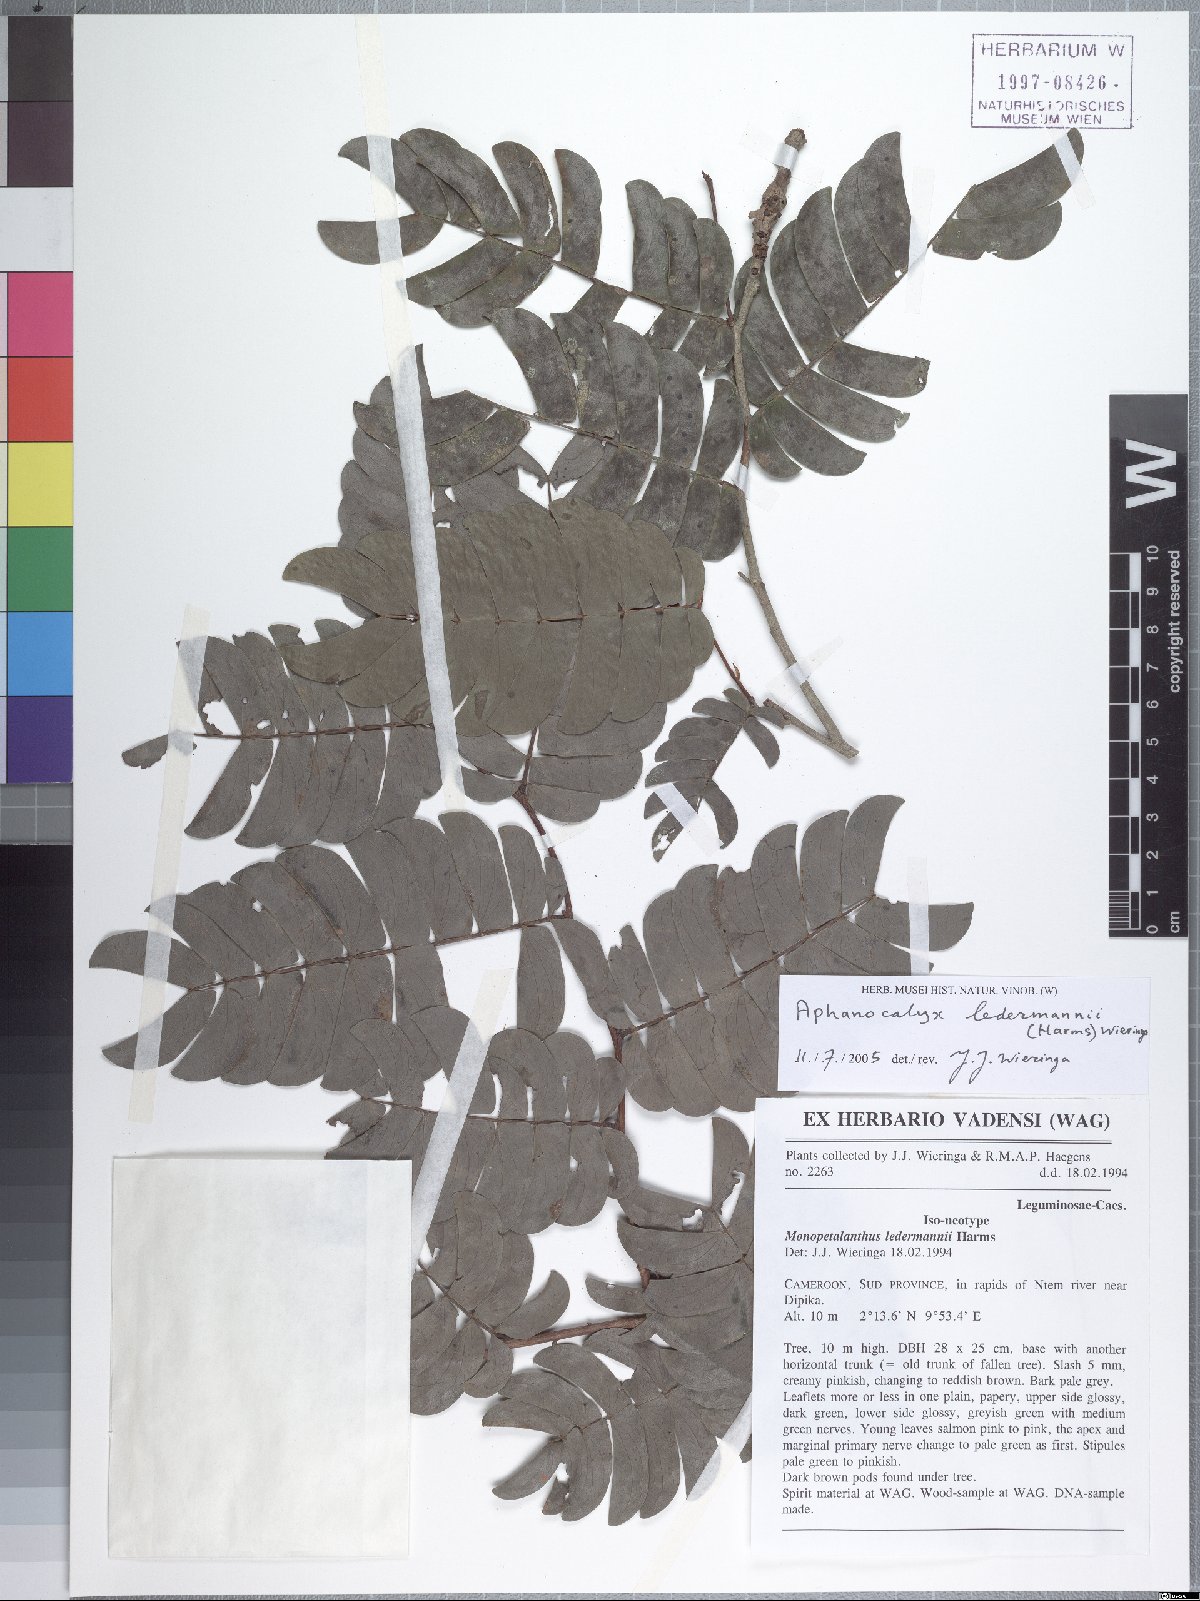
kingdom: Plantae
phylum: Tracheophyta
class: Magnoliopsida
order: Fabales
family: Fabaceae
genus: Aphanocalyx
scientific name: Aphanocalyx ledermannii
